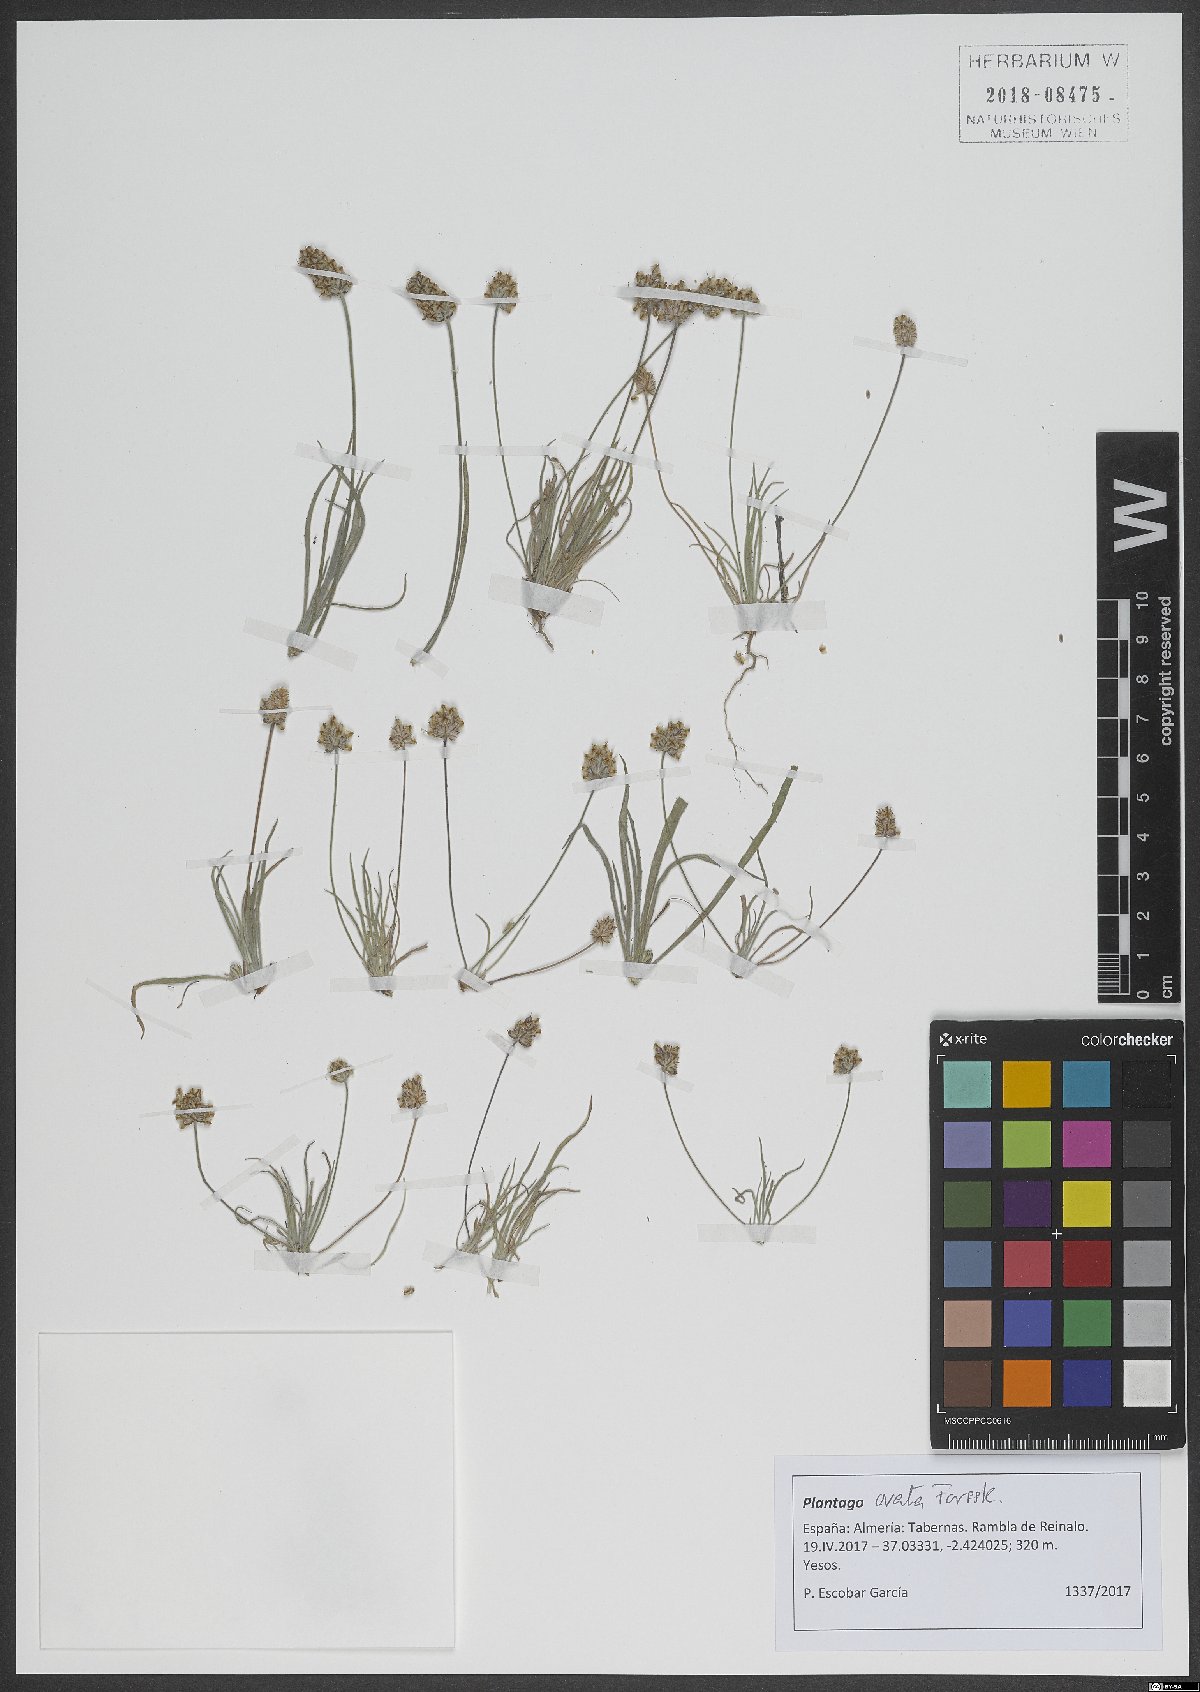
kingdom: Plantae
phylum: Tracheophyta
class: Magnoliopsida
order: Lamiales
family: Plantaginaceae
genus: Plantago
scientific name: Plantago ovata
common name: Blond plantain
